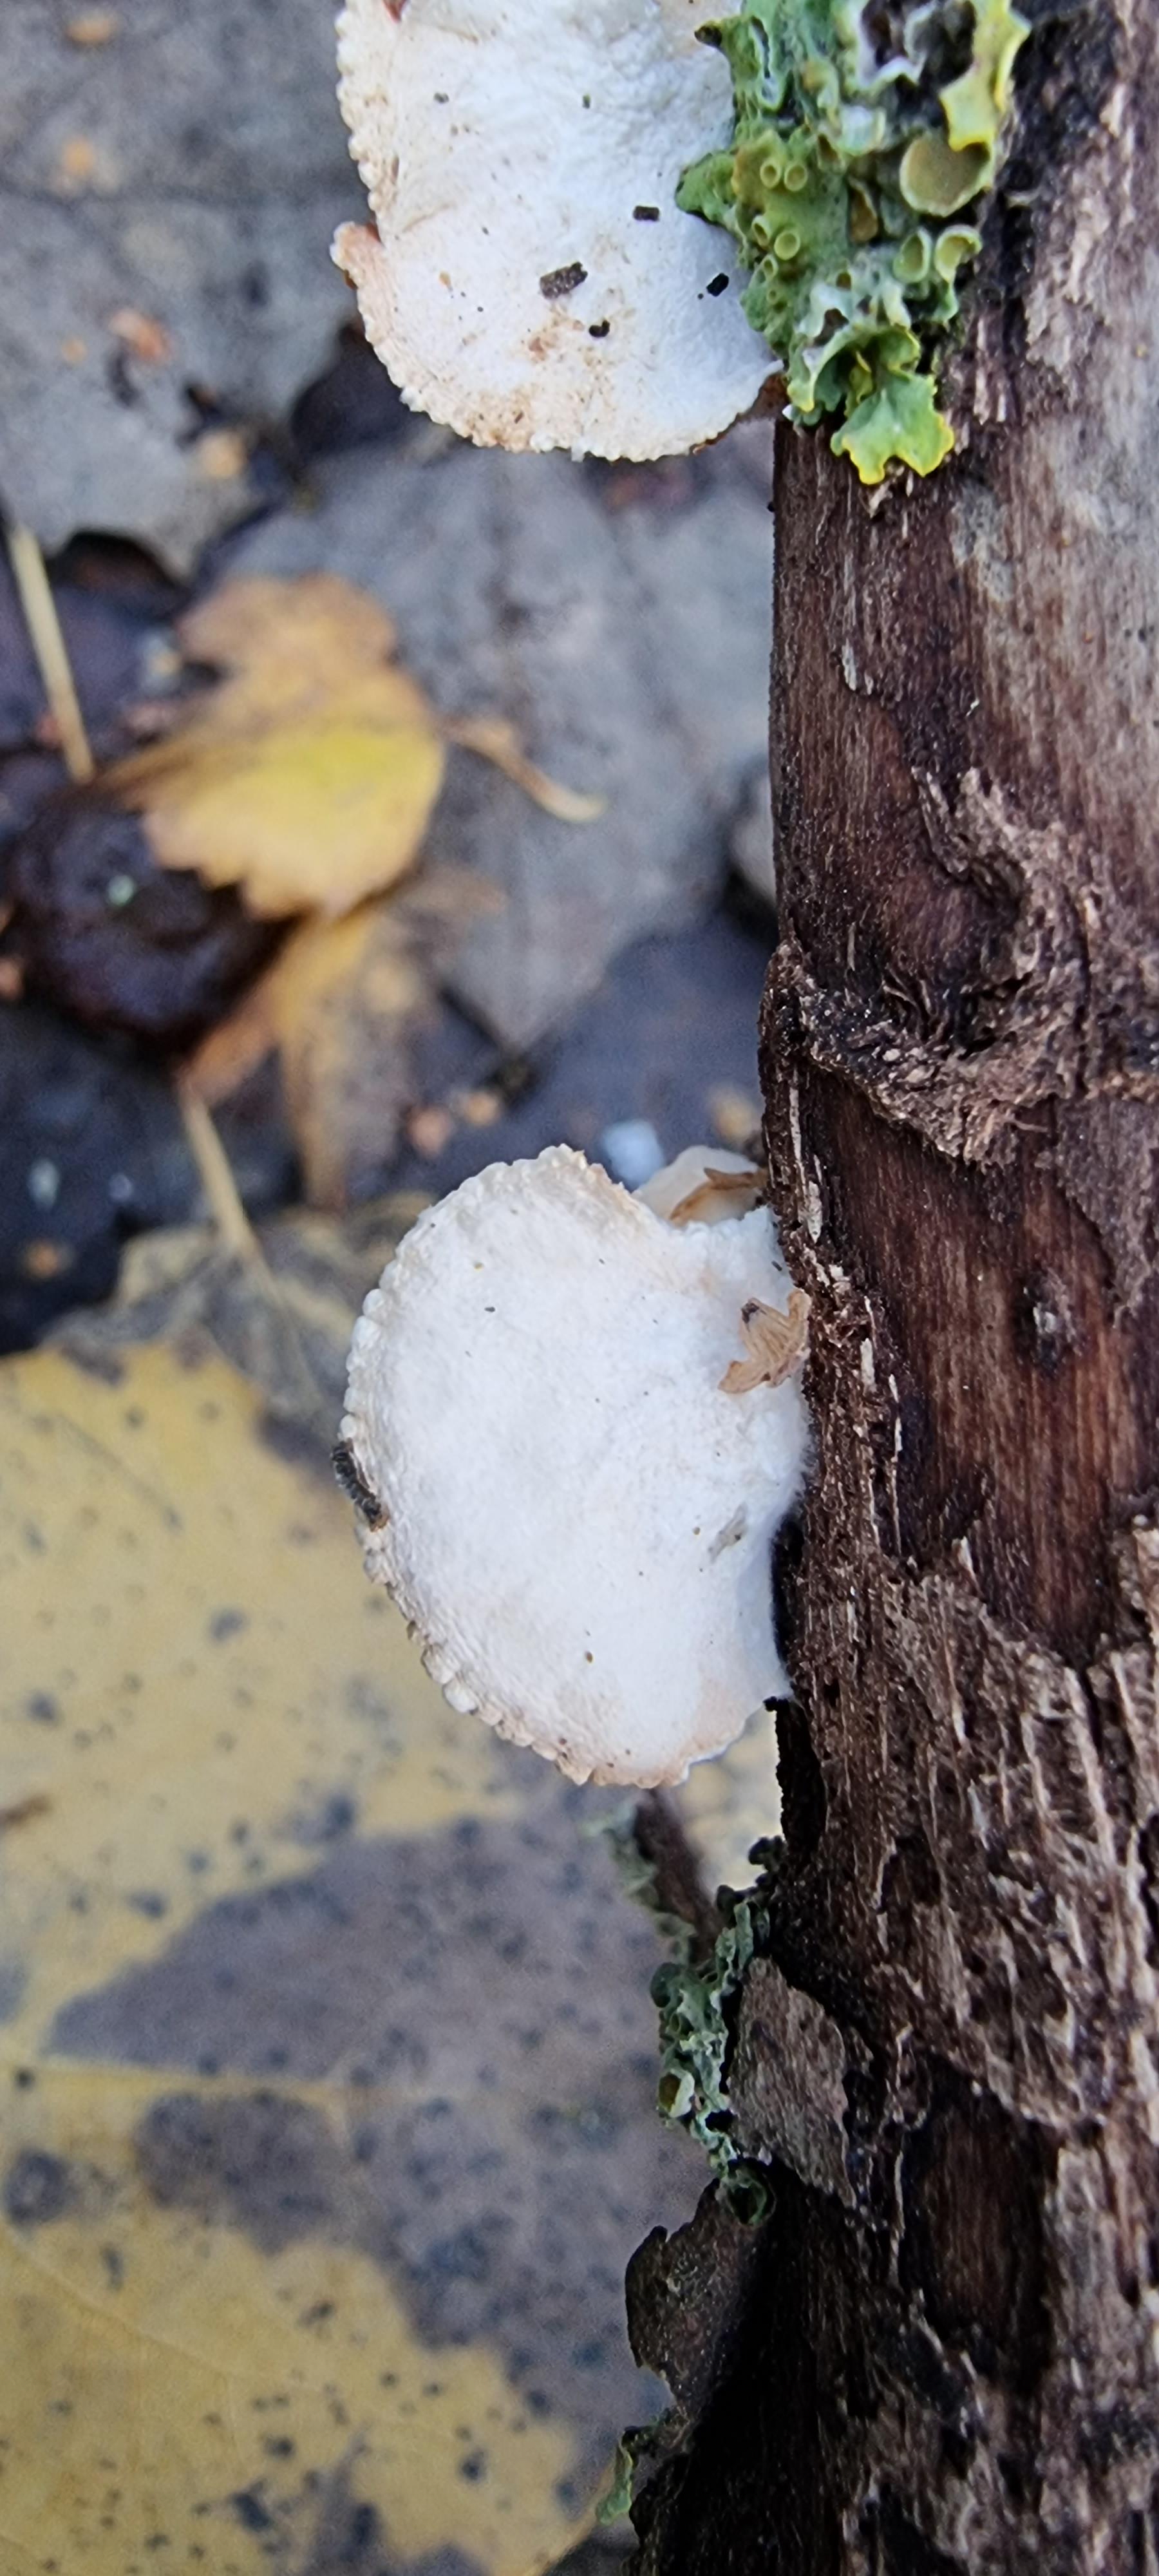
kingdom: Fungi
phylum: Basidiomycota
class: Agaricomycetes
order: Agaricales
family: Crepidotaceae
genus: Crepidotus
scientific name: Crepidotus
